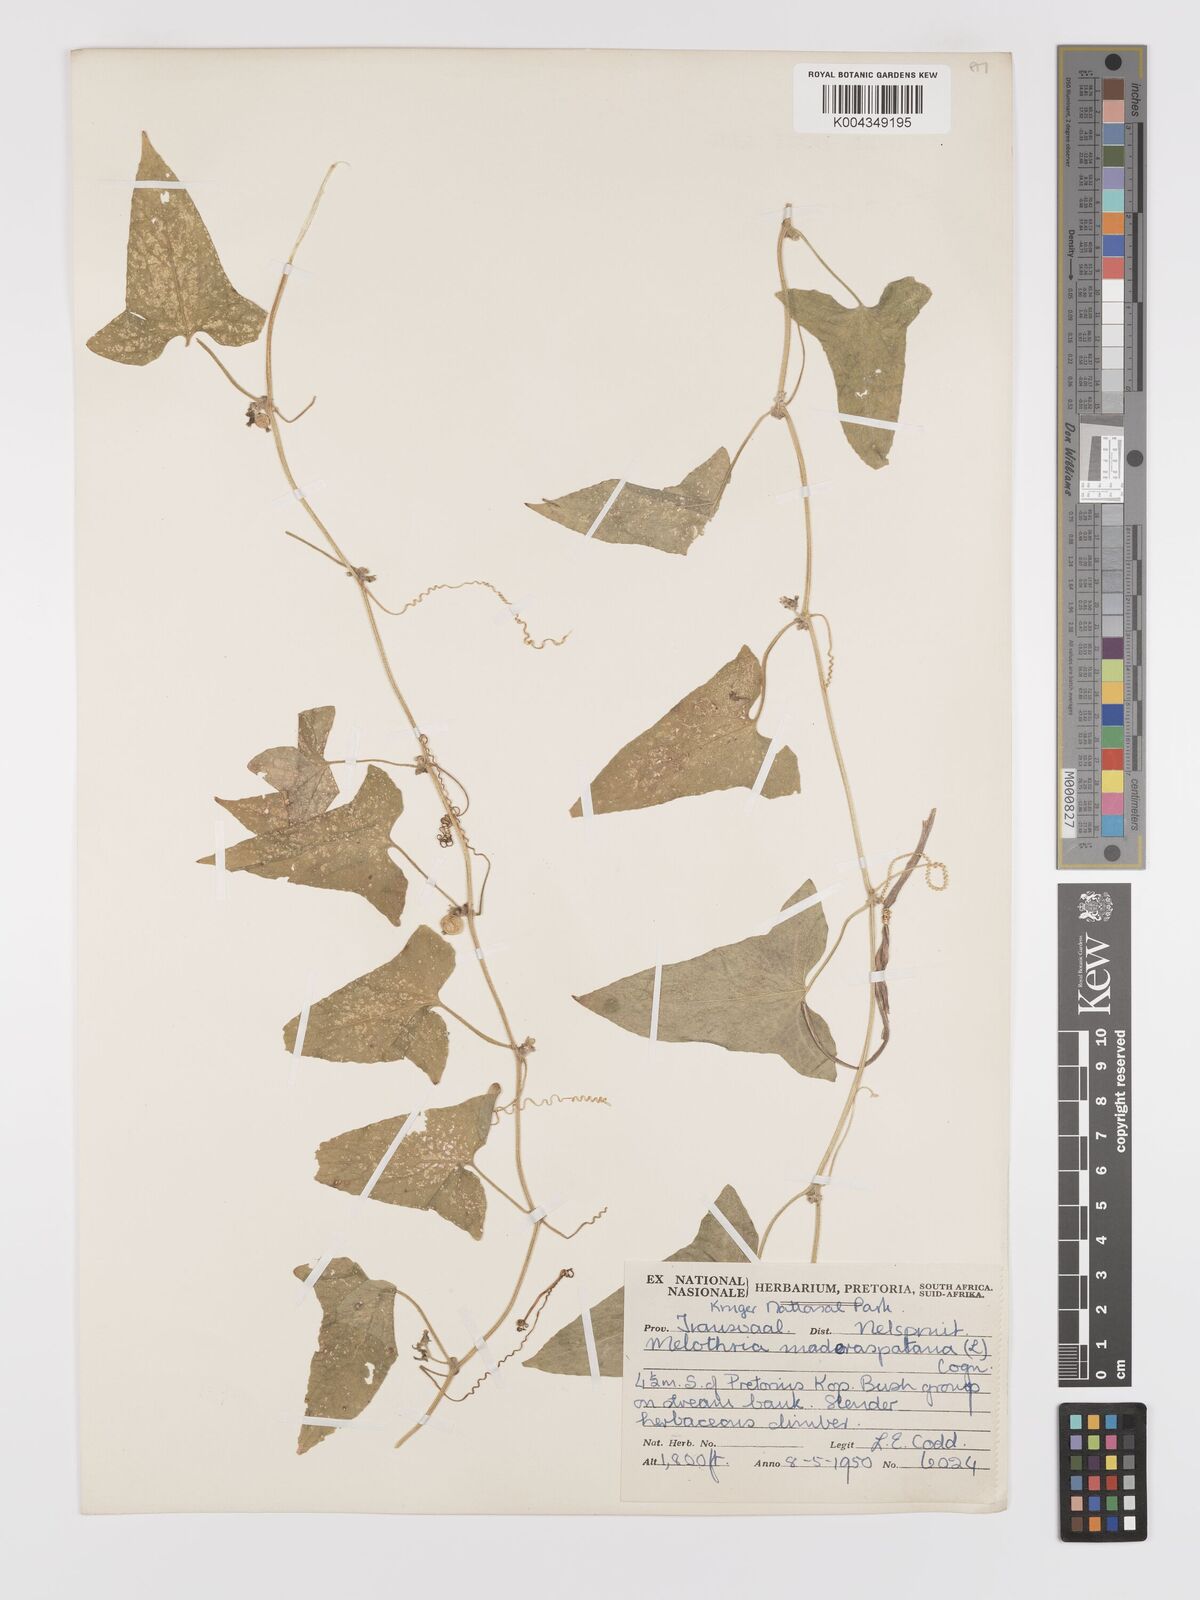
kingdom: Plantae
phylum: Tracheophyta
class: Magnoliopsida
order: Cucurbitales
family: Cucurbitaceae
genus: Cucumis
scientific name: Cucumis maderaspatanus
